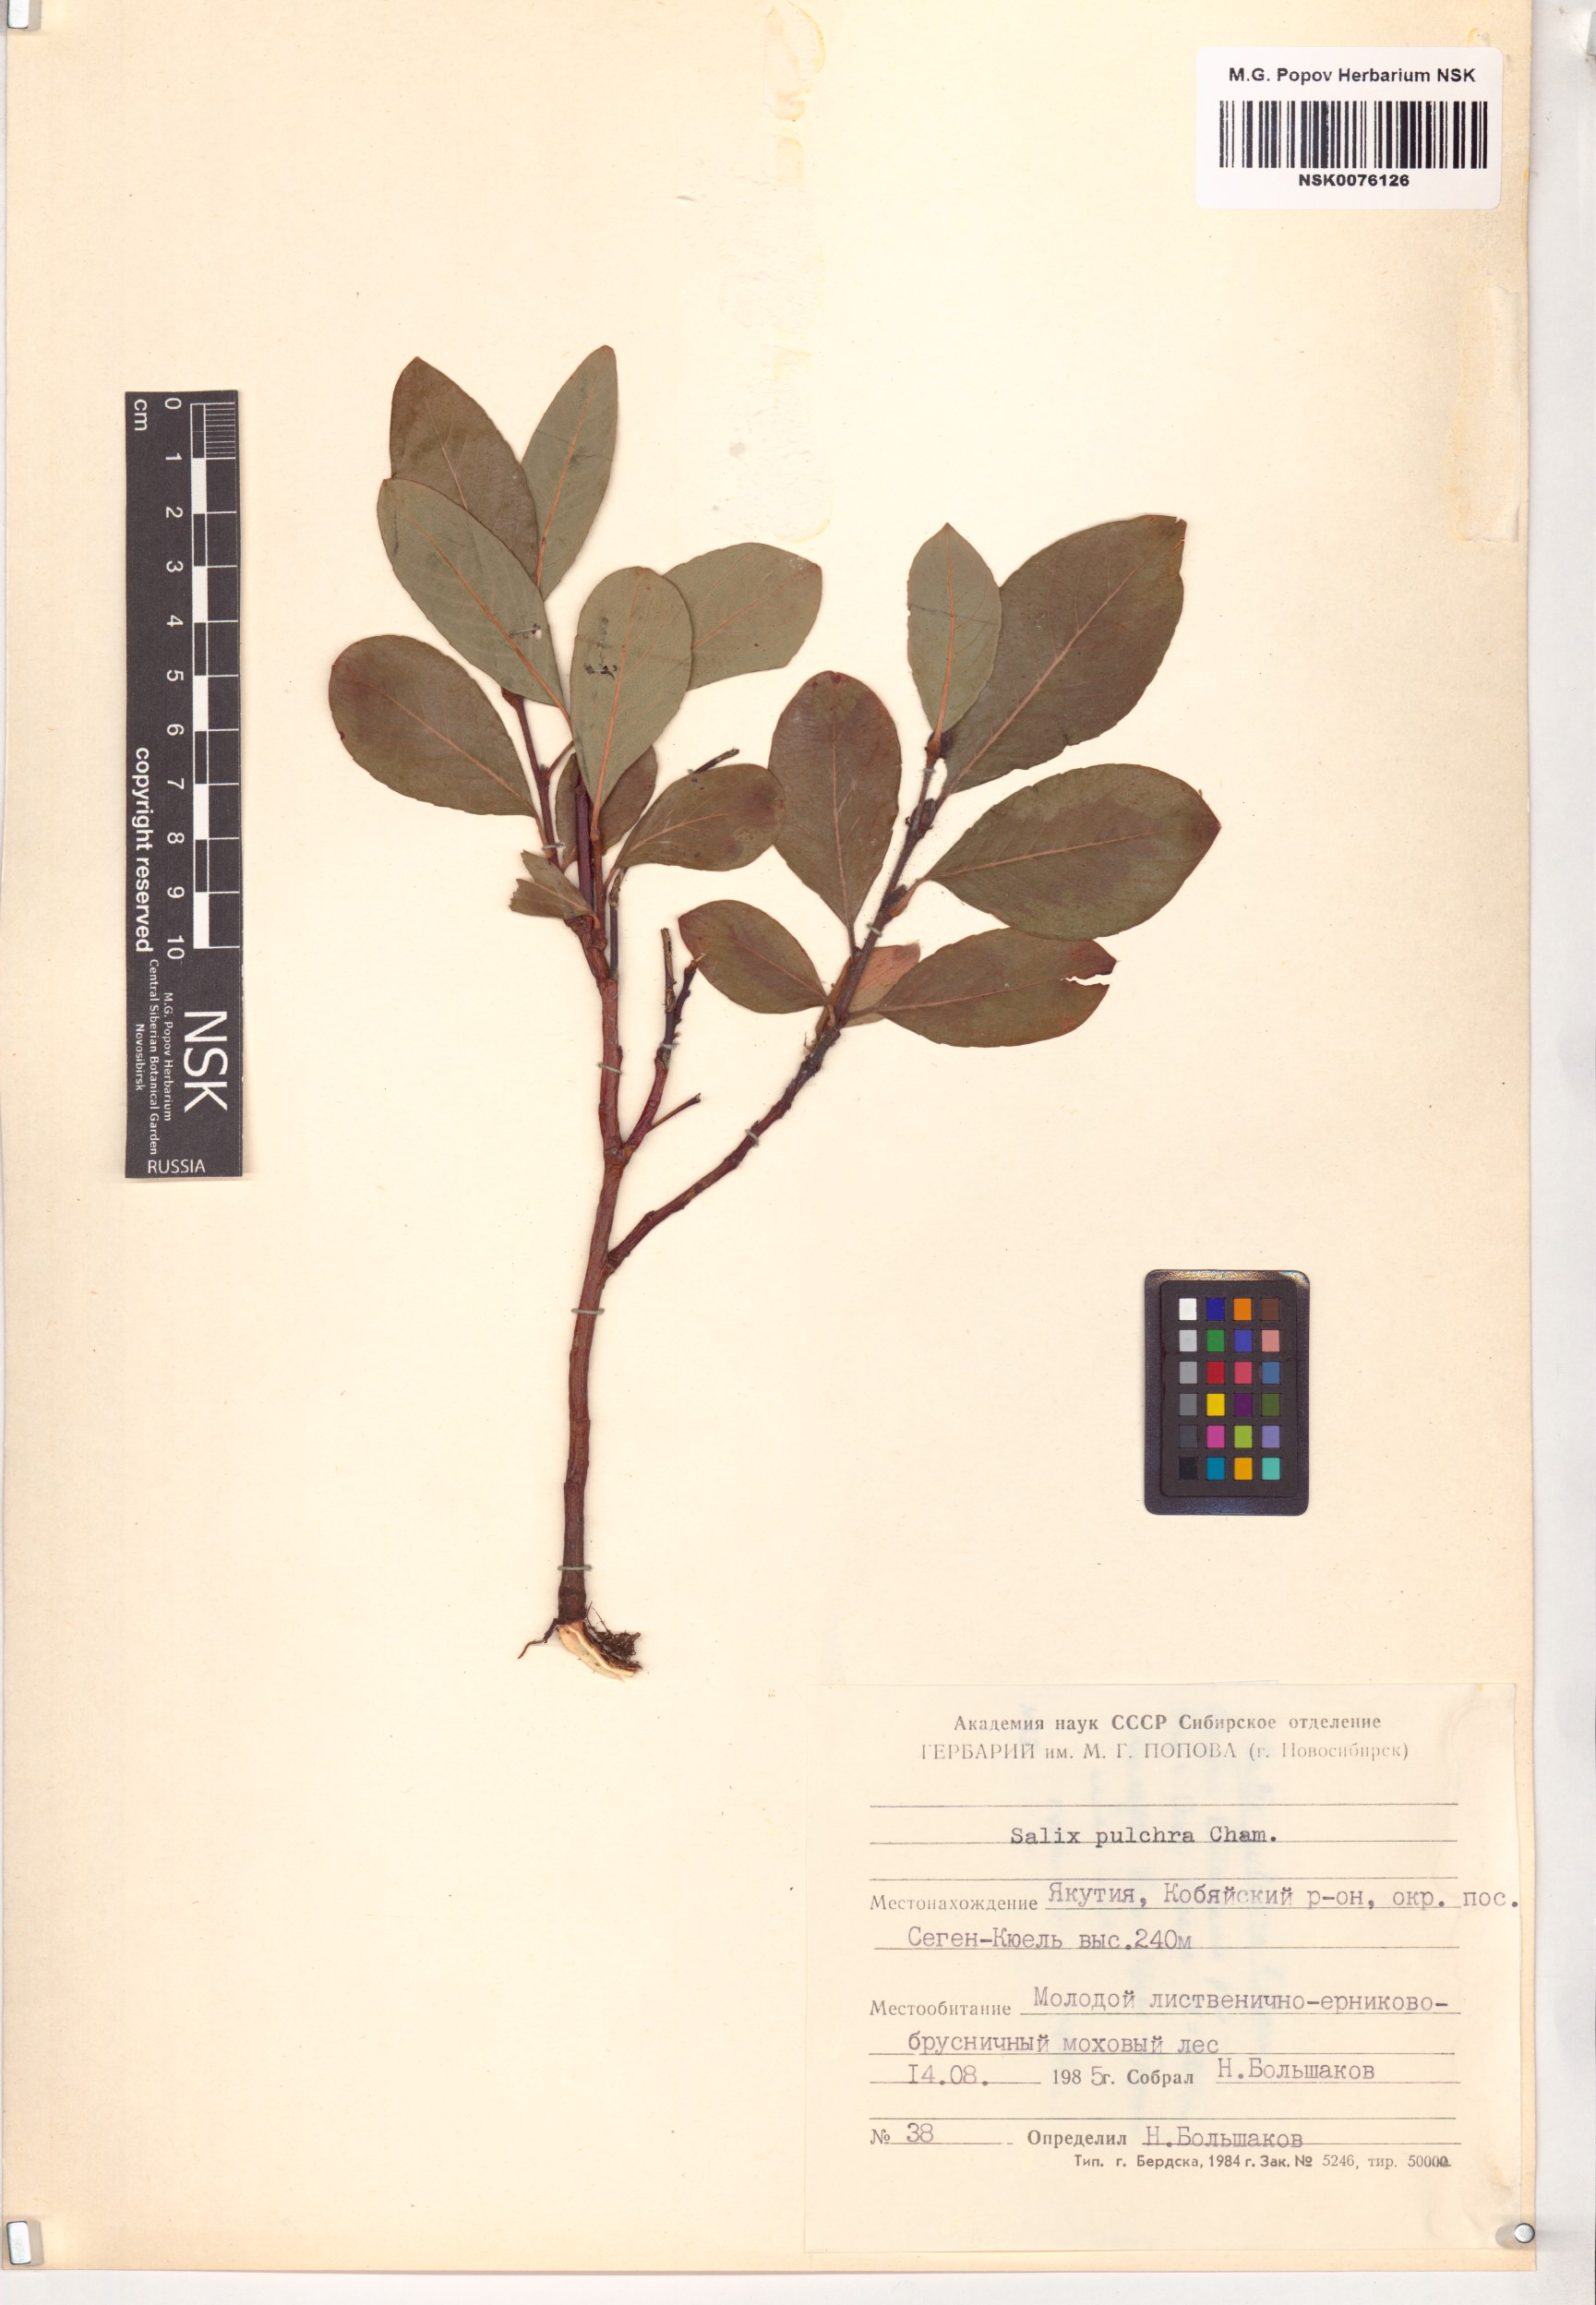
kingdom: Plantae
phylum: Tracheophyta
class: Magnoliopsida
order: Malpighiales
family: Salicaceae
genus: Salix
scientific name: Salix pulchra
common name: Diamond-leaved willow
